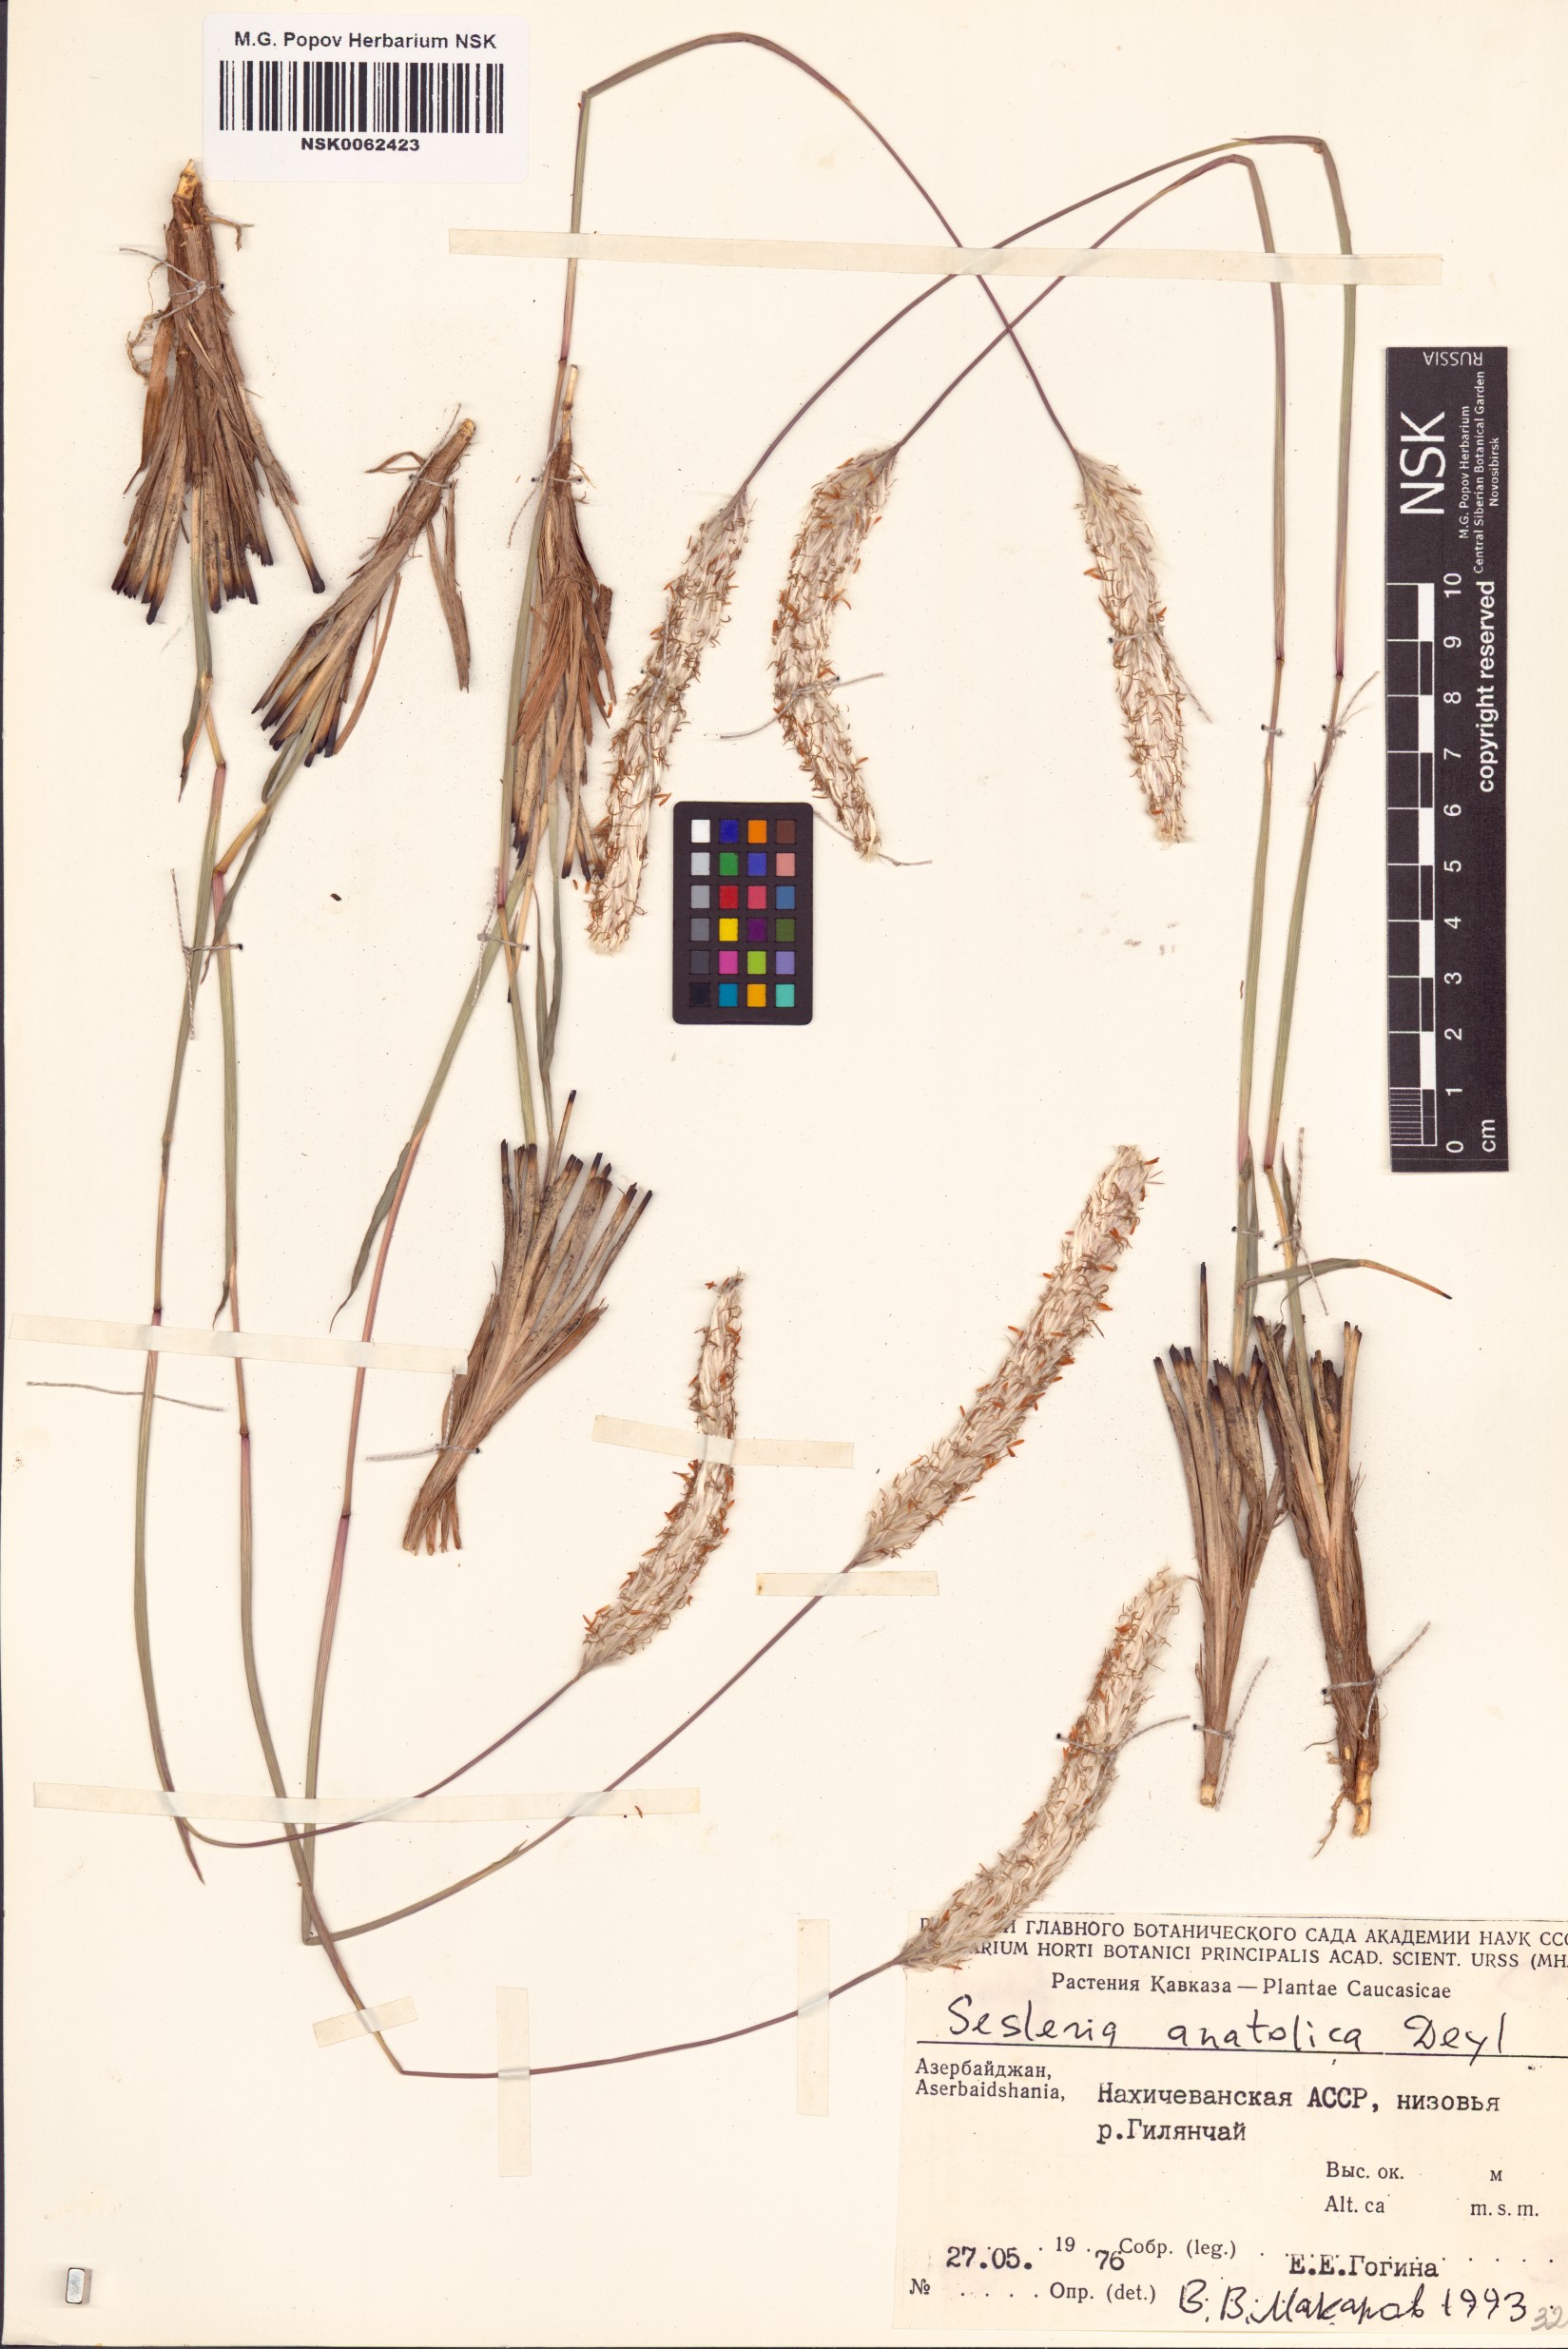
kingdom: Plantae
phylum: Tracheophyta
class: Liliopsida
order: Poales
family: Poaceae
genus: Sesleria
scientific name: Sesleria alba
